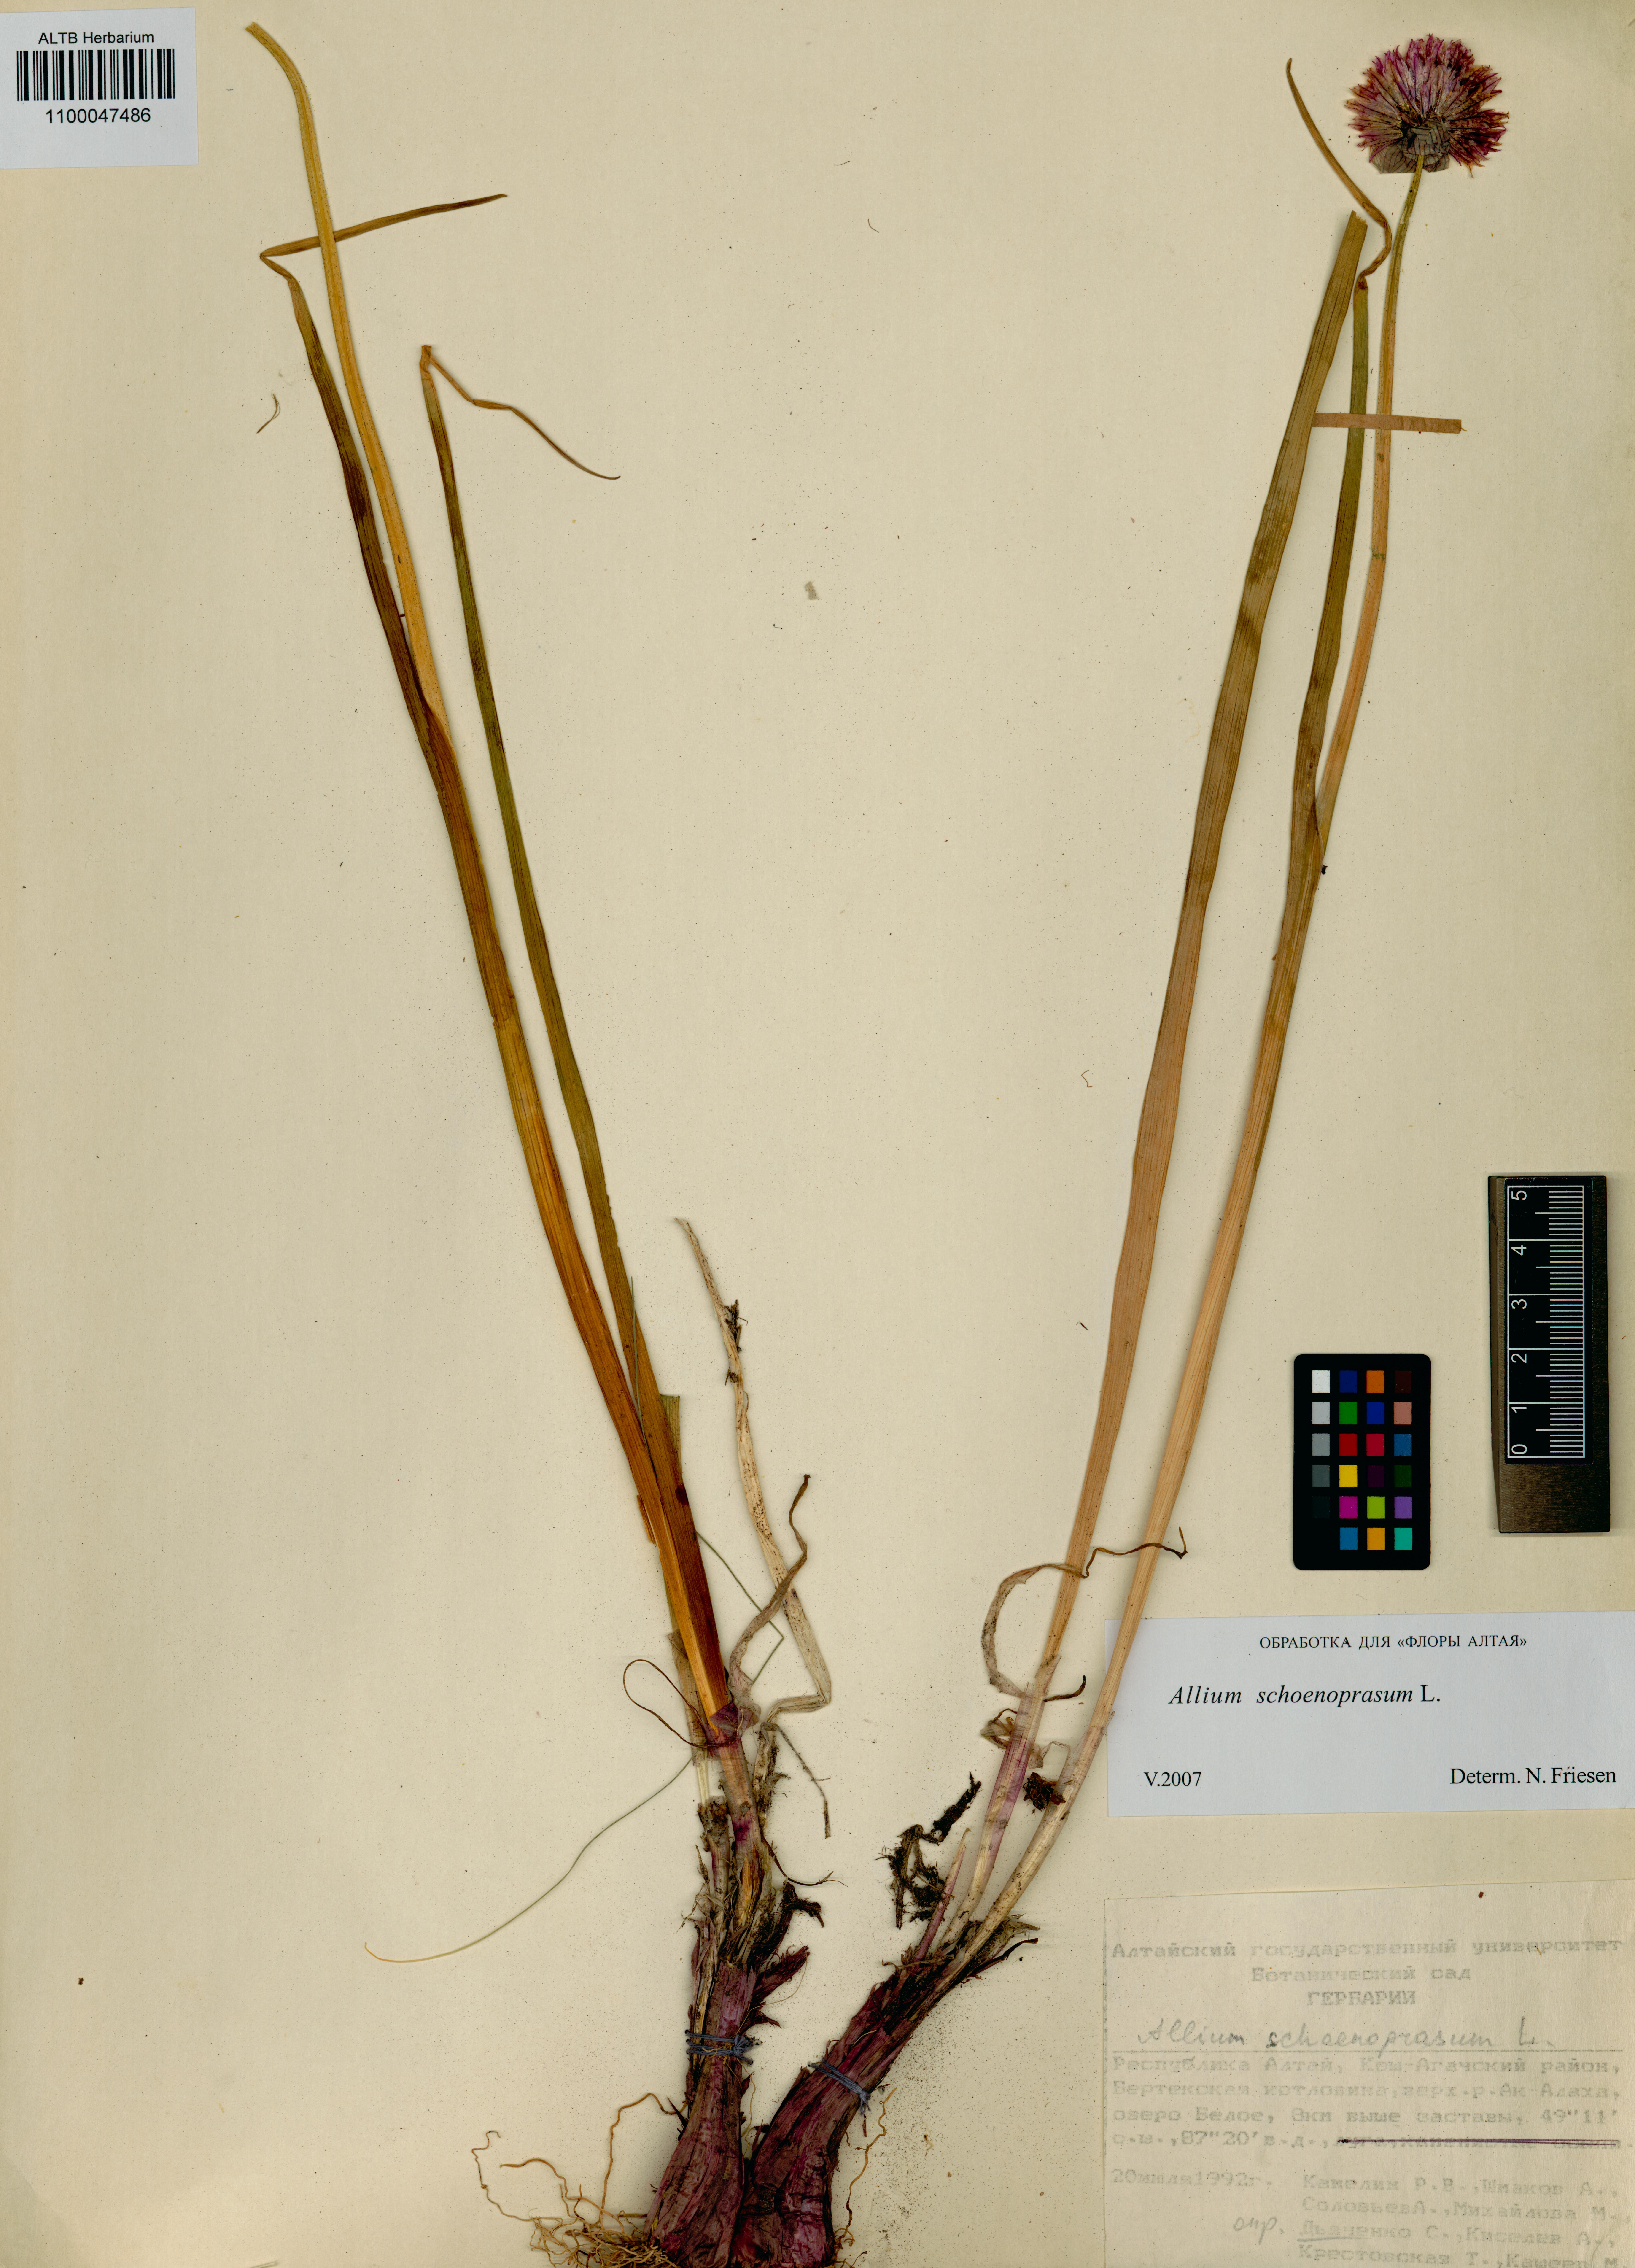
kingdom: Plantae
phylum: Tracheophyta
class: Liliopsida
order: Asparagales
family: Amaryllidaceae
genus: Allium
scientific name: Allium schoenoprasum
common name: Chives
